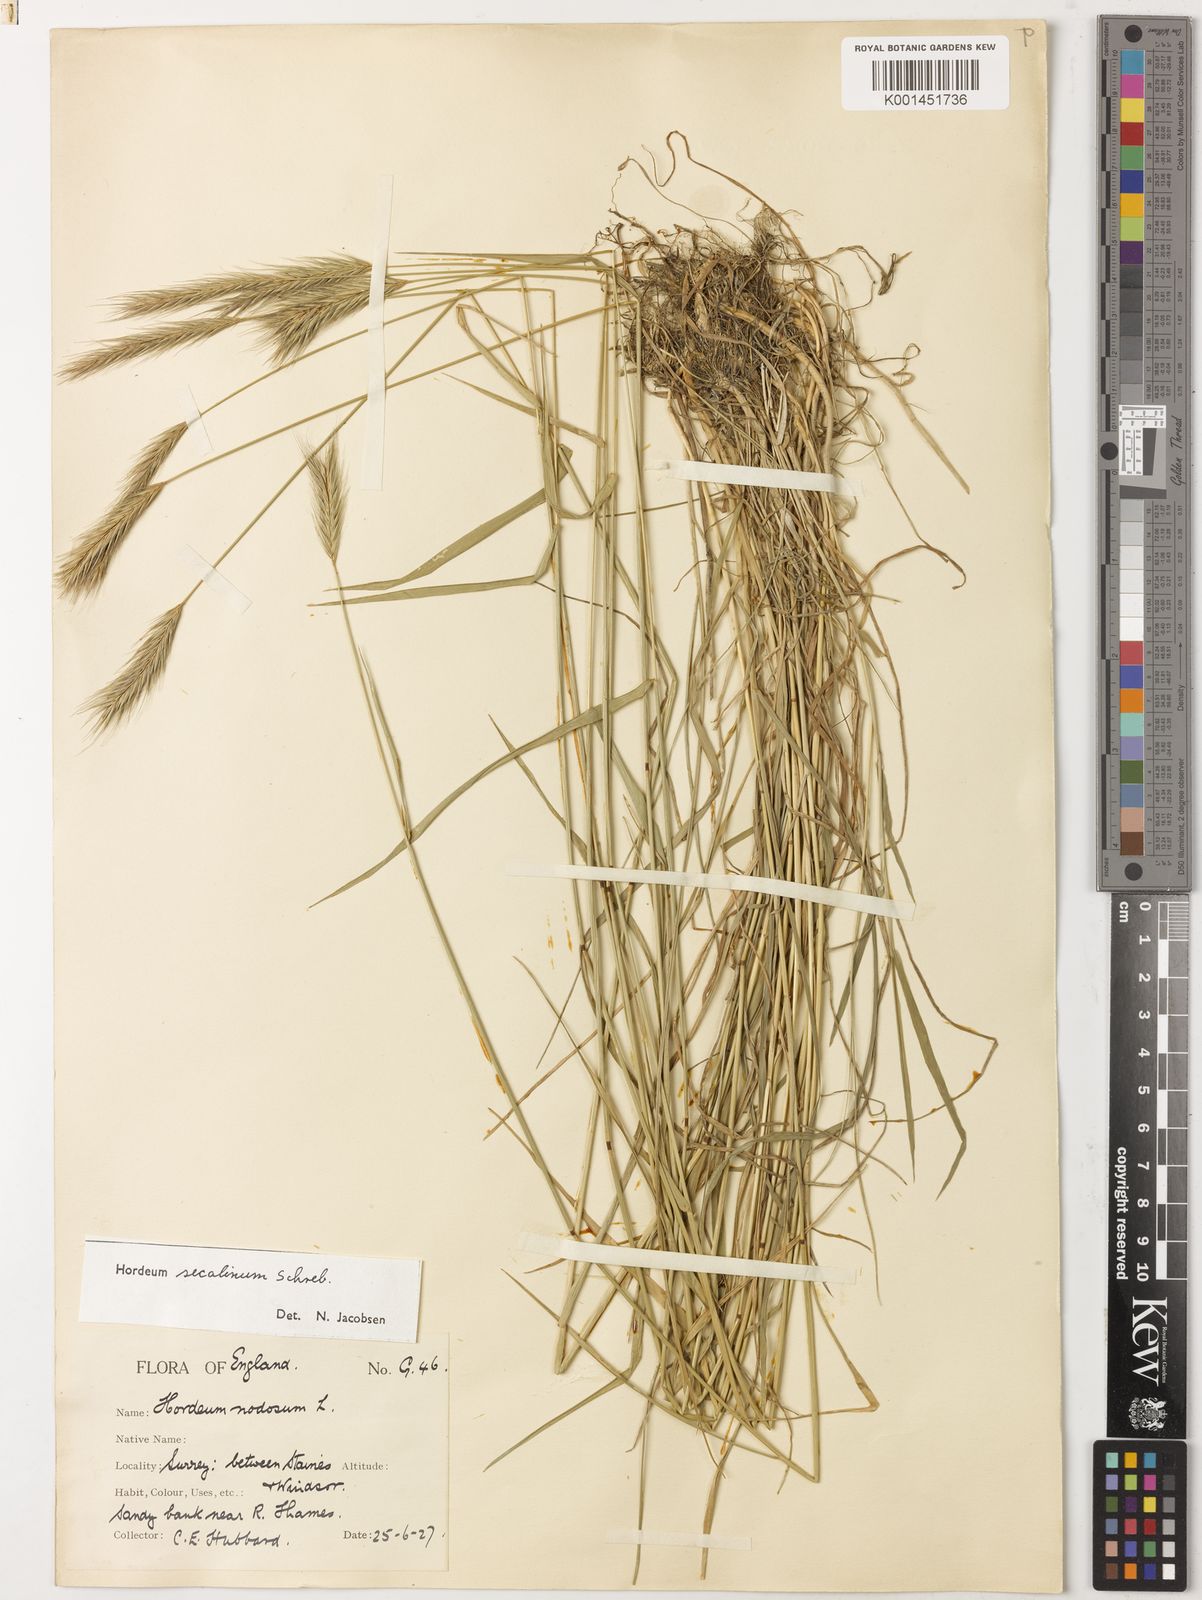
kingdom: Plantae
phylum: Tracheophyta
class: Liliopsida
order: Poales
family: Poaceae
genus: Hordeum
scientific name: Hordeum secalinum
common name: Meadow barley
